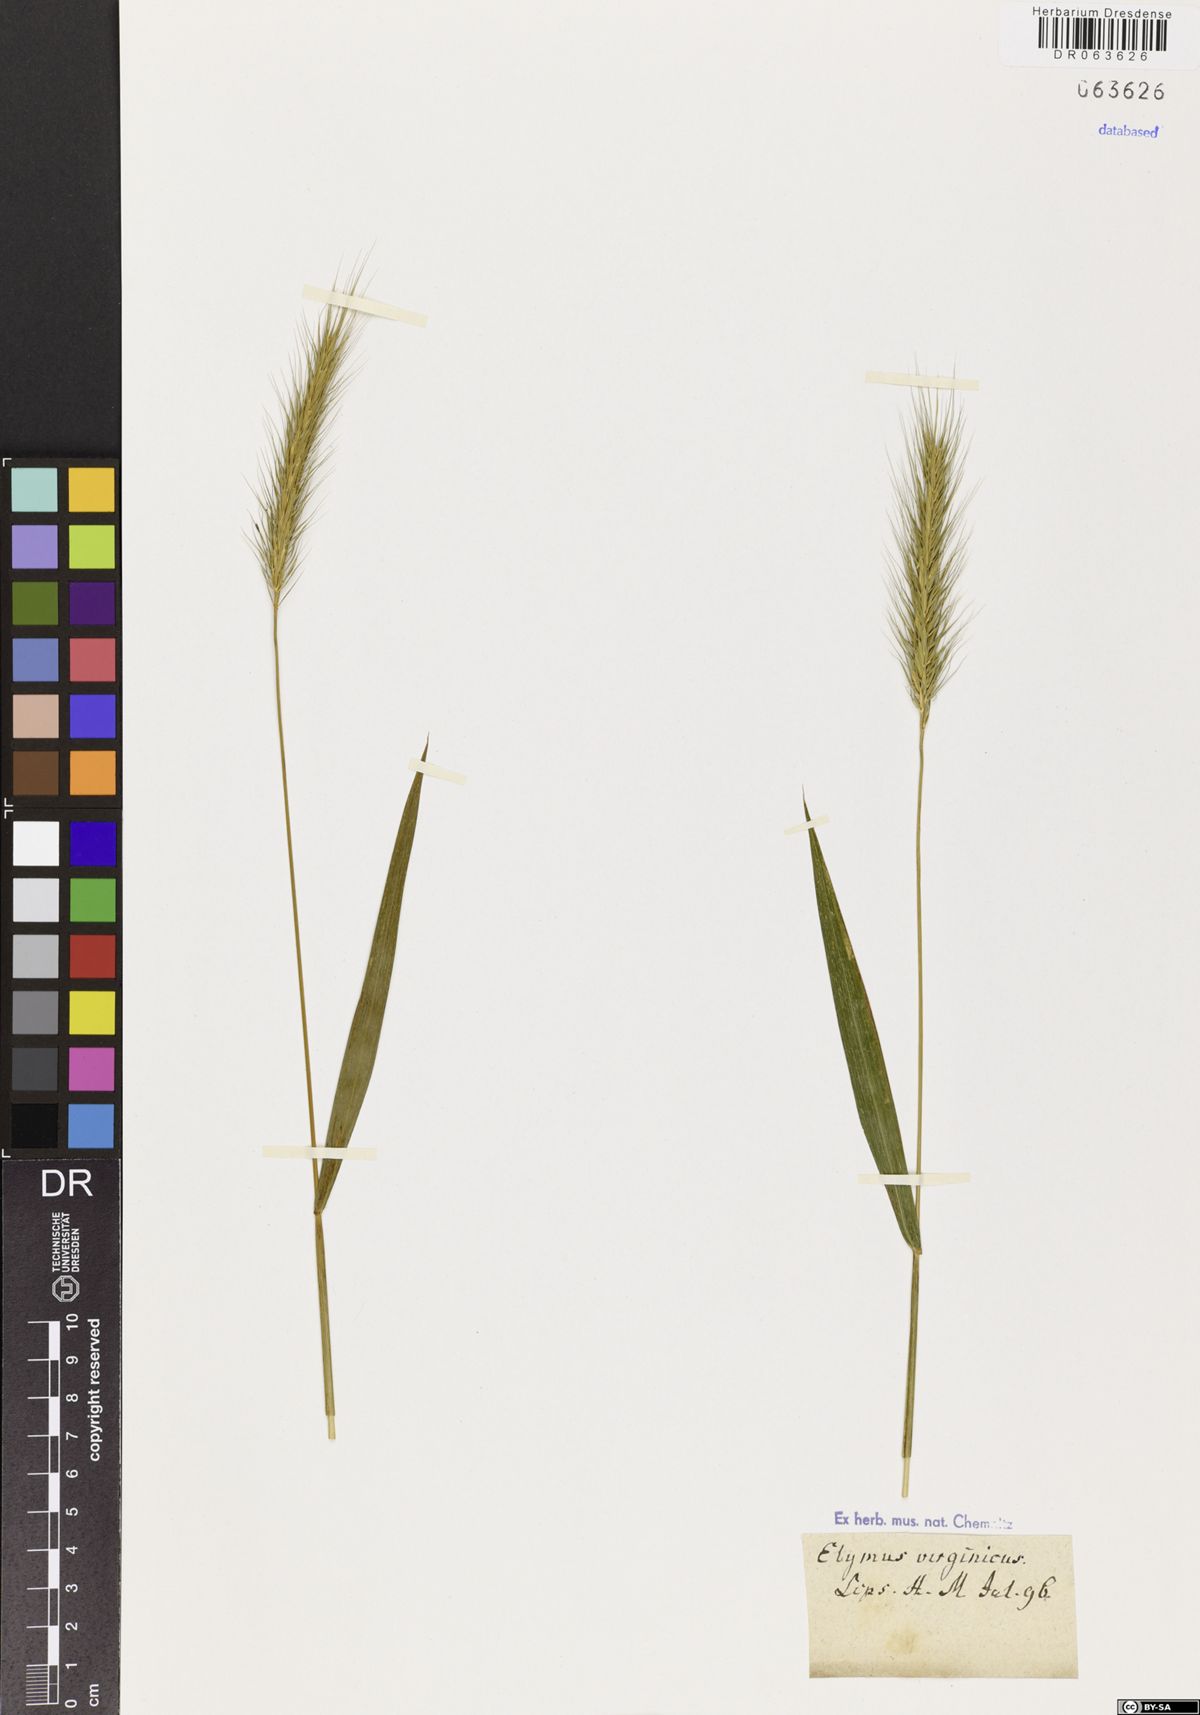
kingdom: Plantae
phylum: Tracheophyta
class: Liliopsida
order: Poales
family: Poaceae
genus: Elymus
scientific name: Elymus virginicus
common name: Common eastern wildrye
